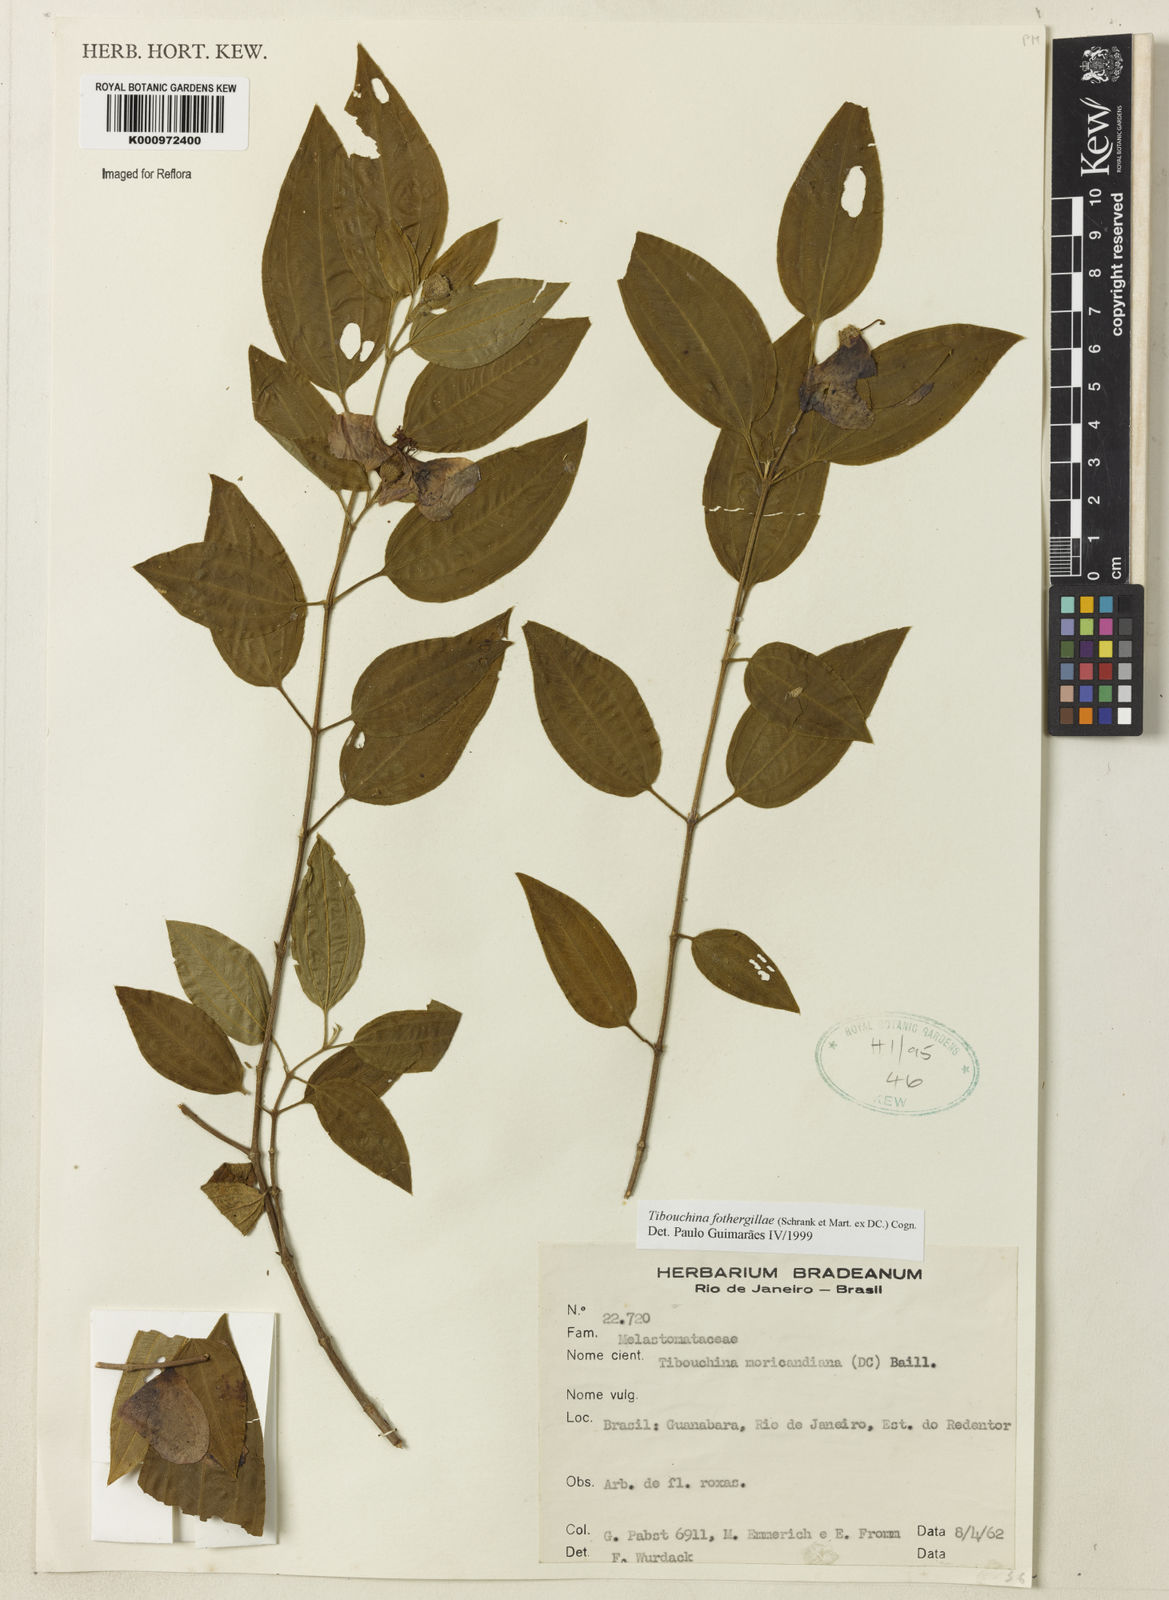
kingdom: Plantae
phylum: Tracheophyta
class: Magnoliopsida
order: Myrtales
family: Melastomataceae
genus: Pleroma
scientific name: Pleroma fothergillae
